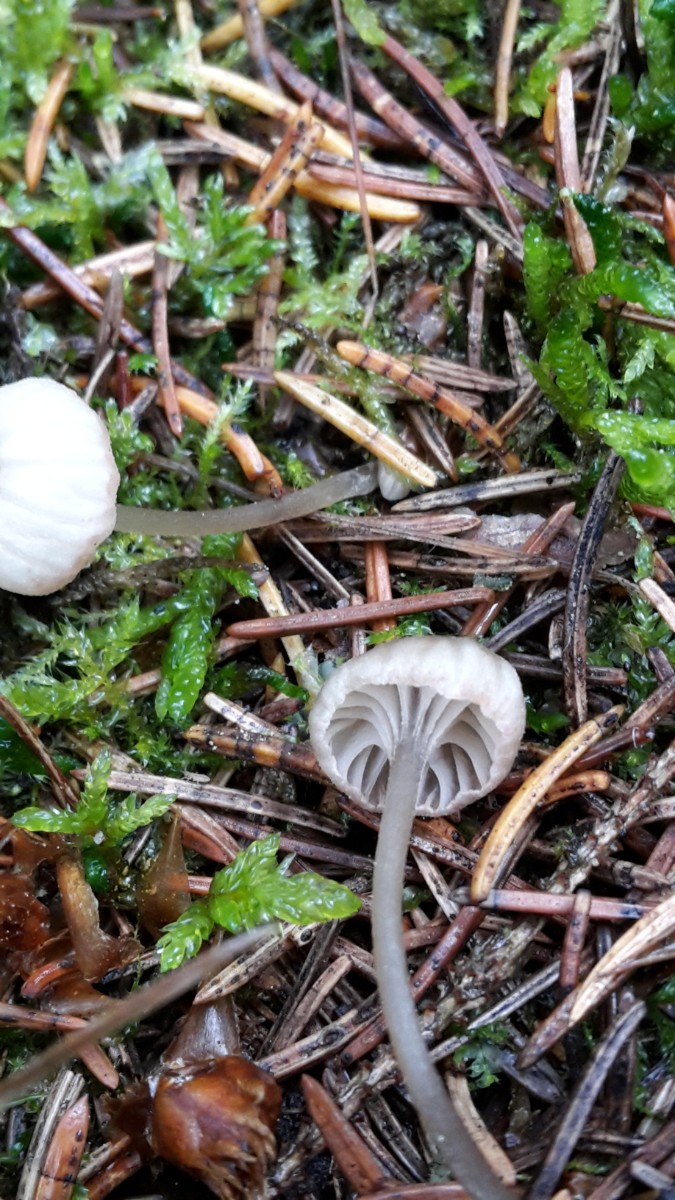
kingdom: Fungi
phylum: Basidiomycota
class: Agaricomycetes
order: Agaricales
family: Entolomataceae
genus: Entoloma
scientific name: Entoloma rhodocylix
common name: fjernbladet rødblad
